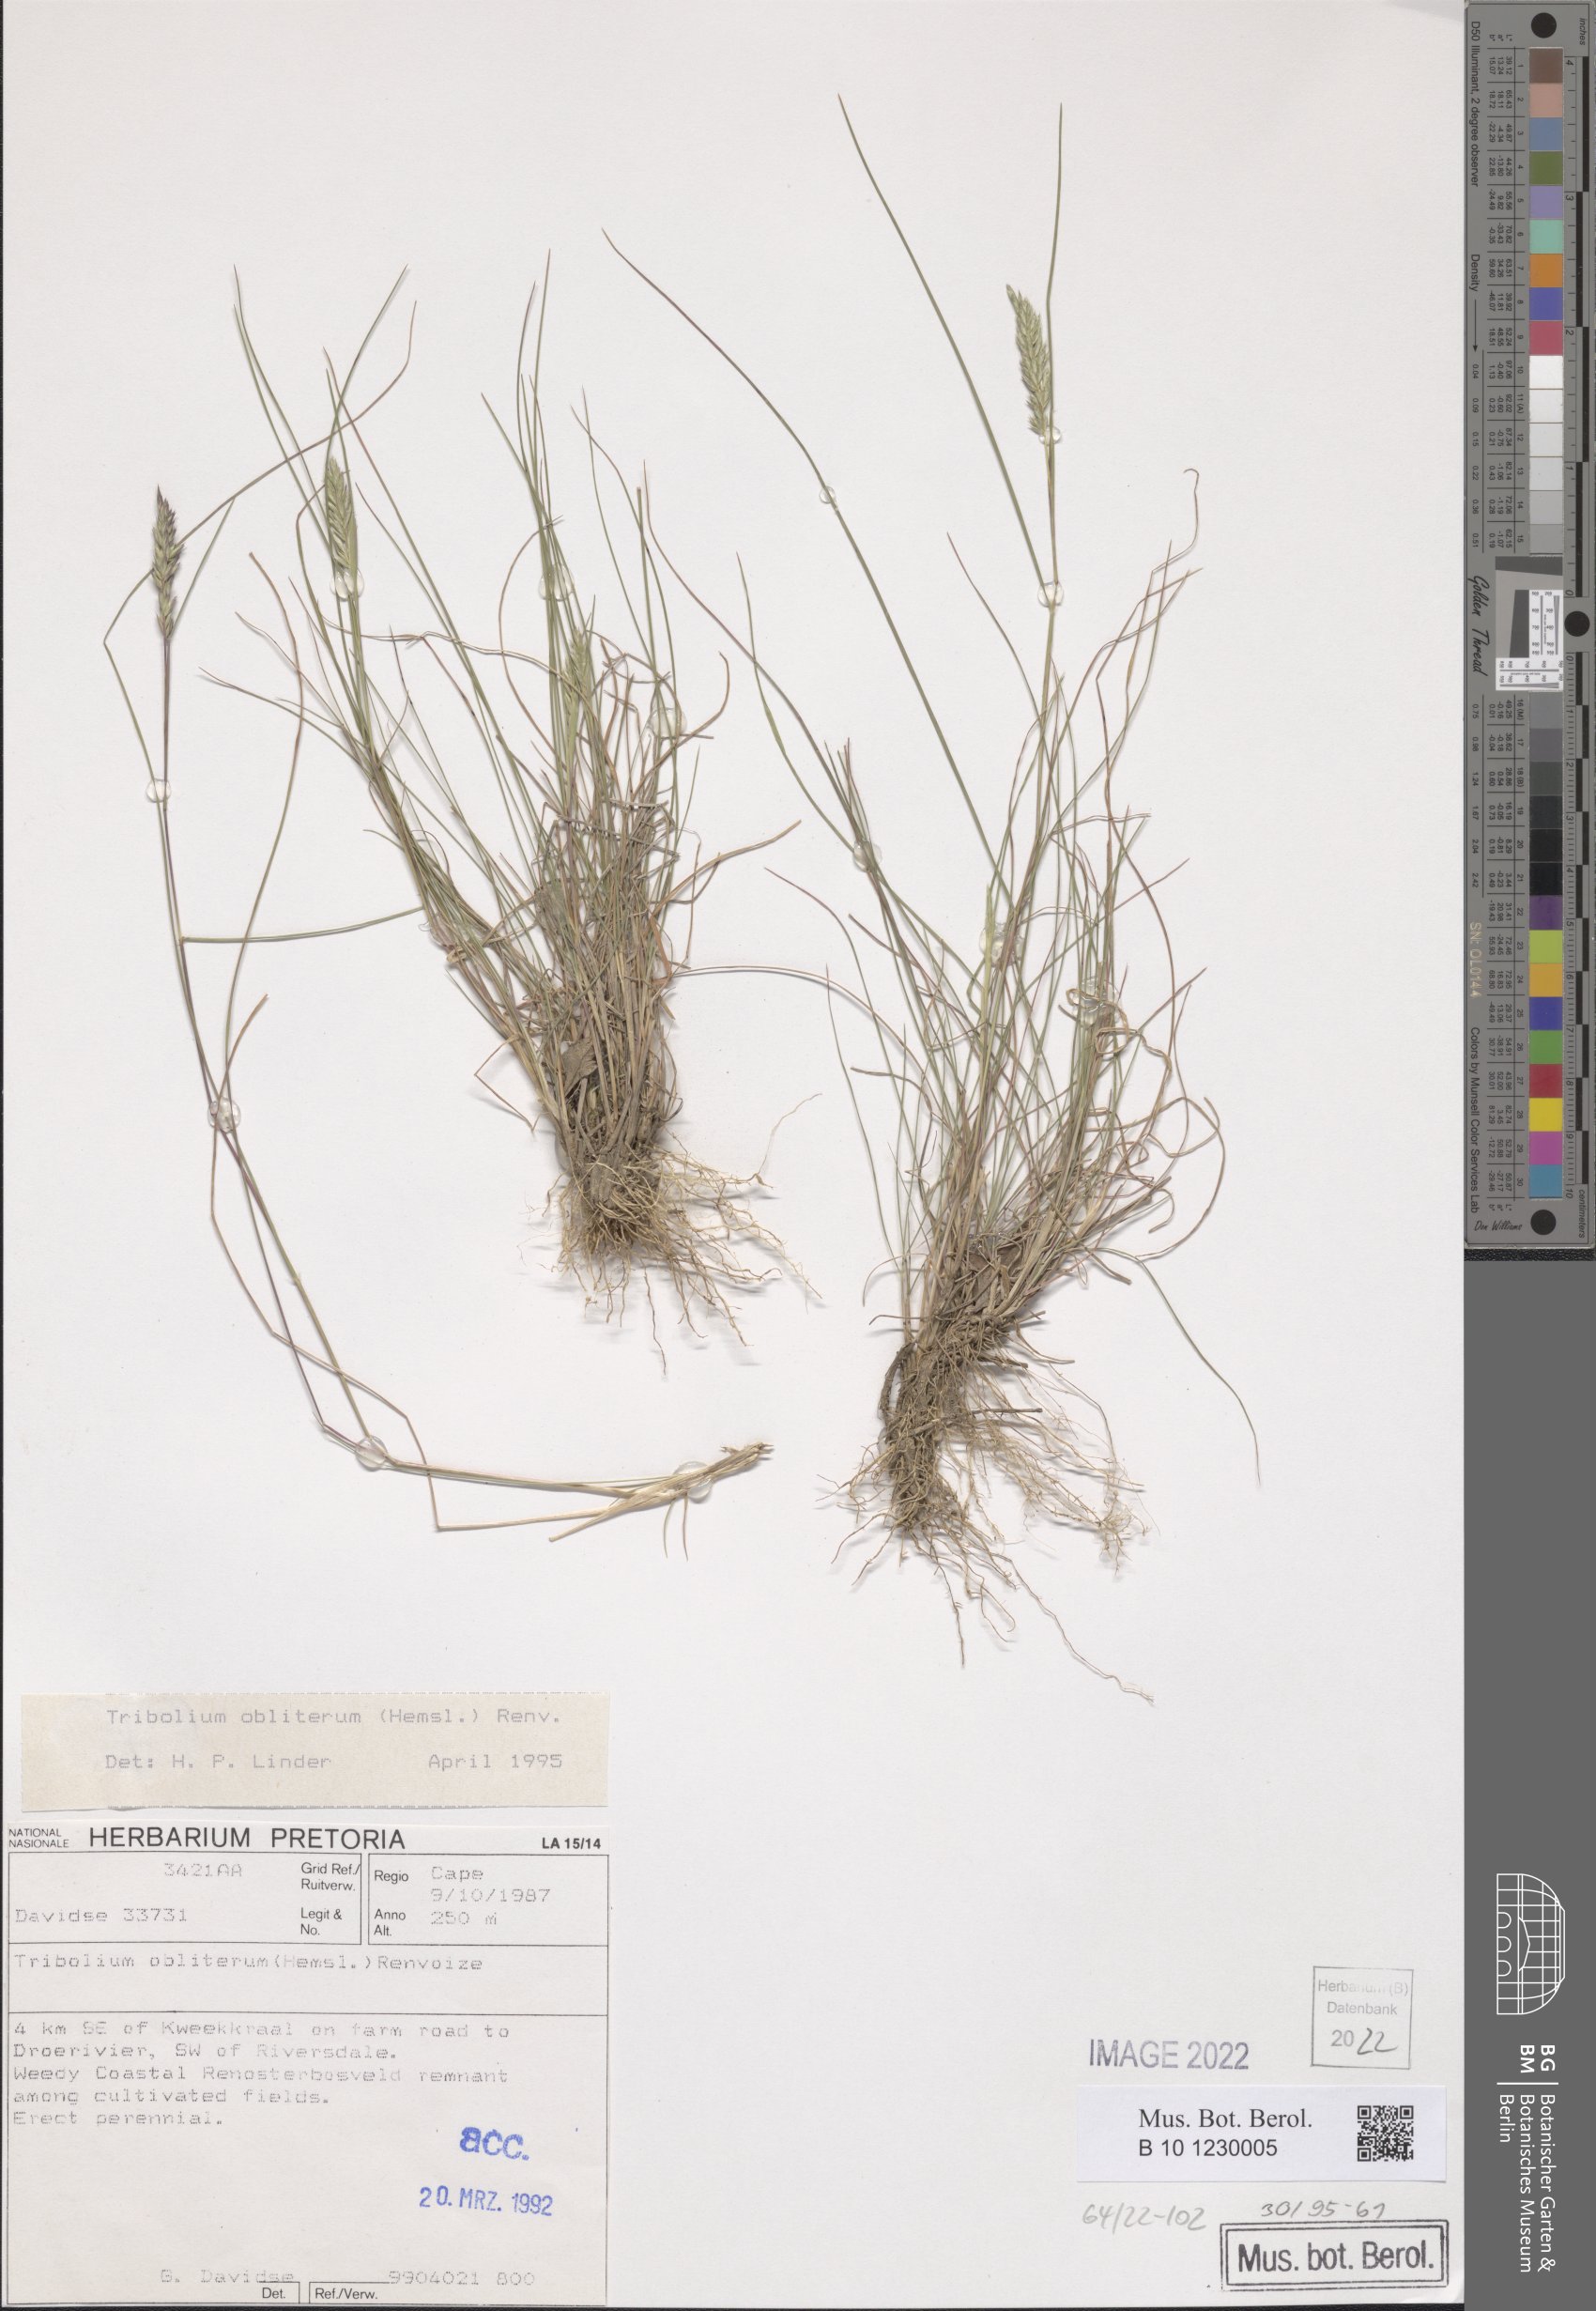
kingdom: Plantae
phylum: Tracheophyta
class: Liliopsida
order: Poales
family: Poaceae
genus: Tribolium
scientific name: Tribolium obliterum
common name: Capetown grass
